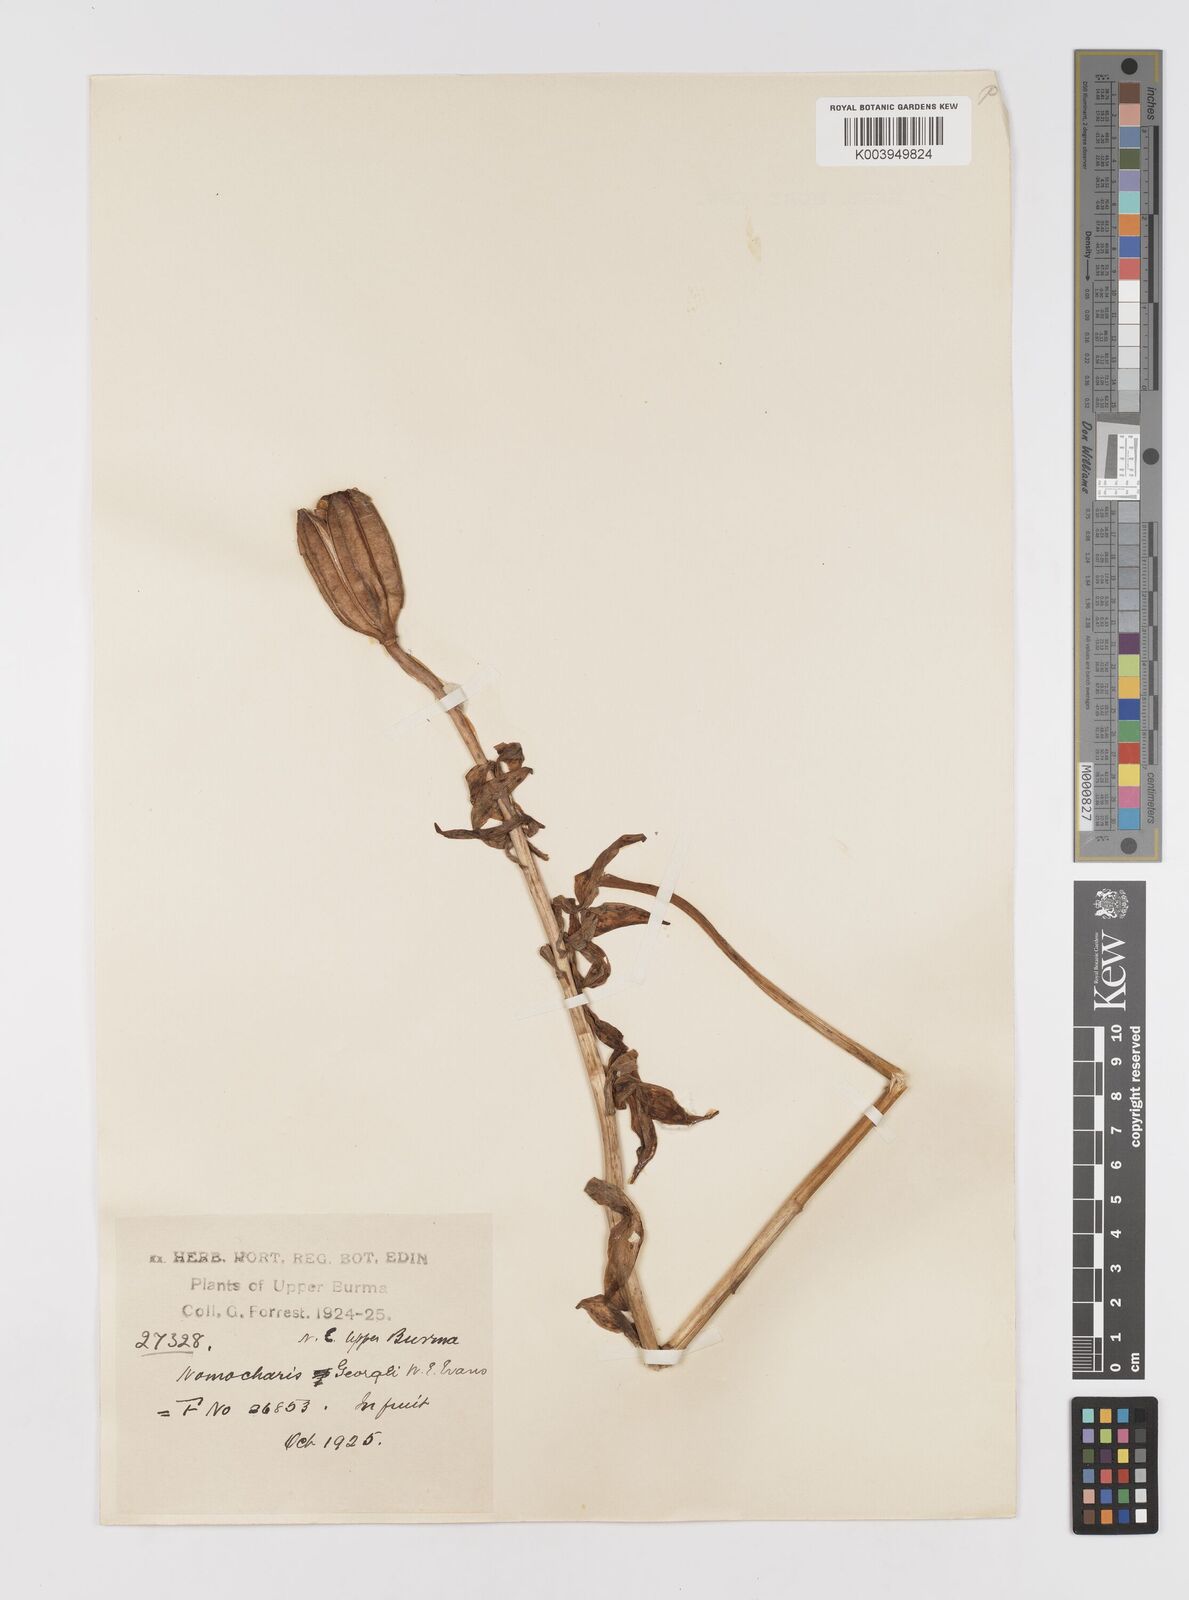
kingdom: Plantae
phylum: Tracheophyta
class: Liliopsida
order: Liliales
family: Liliaceae
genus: Lilium
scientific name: Lilium georgei
